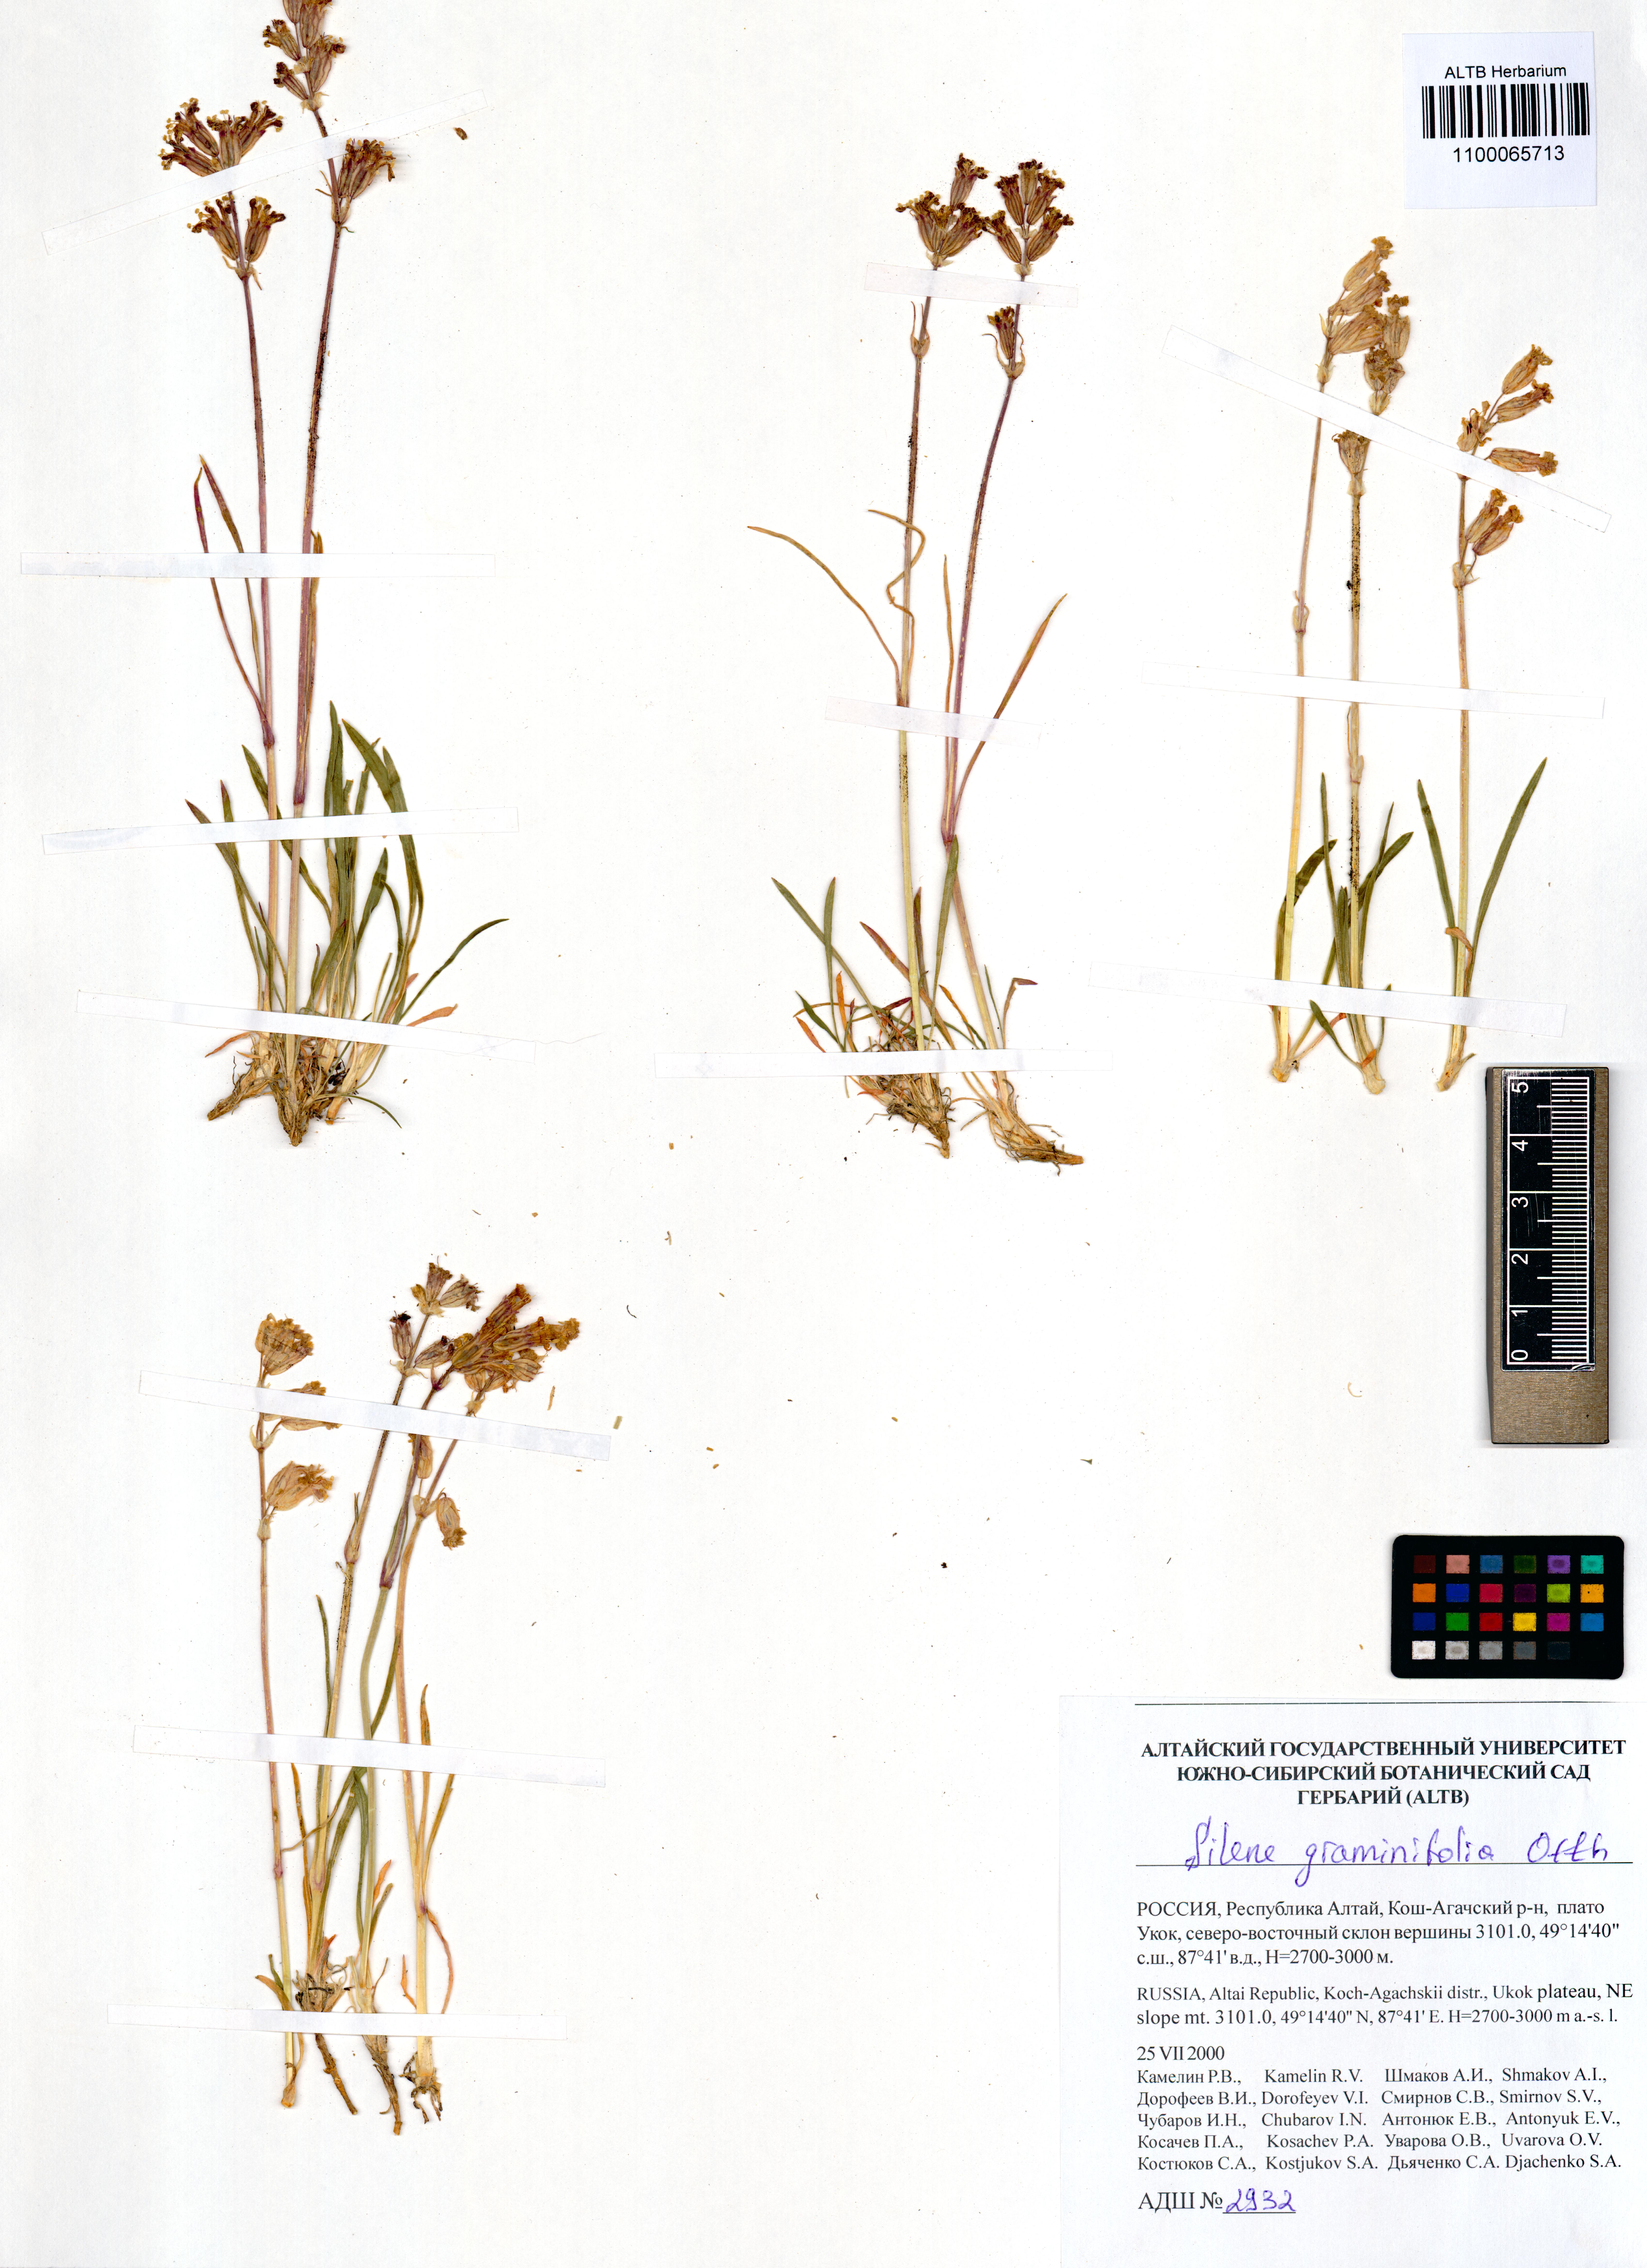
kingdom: Plantae
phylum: Tracheophyta
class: Magnoliopsida
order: Caryophyllales
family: Caryophyllaceae
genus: Silene
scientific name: Silene graminifolia
